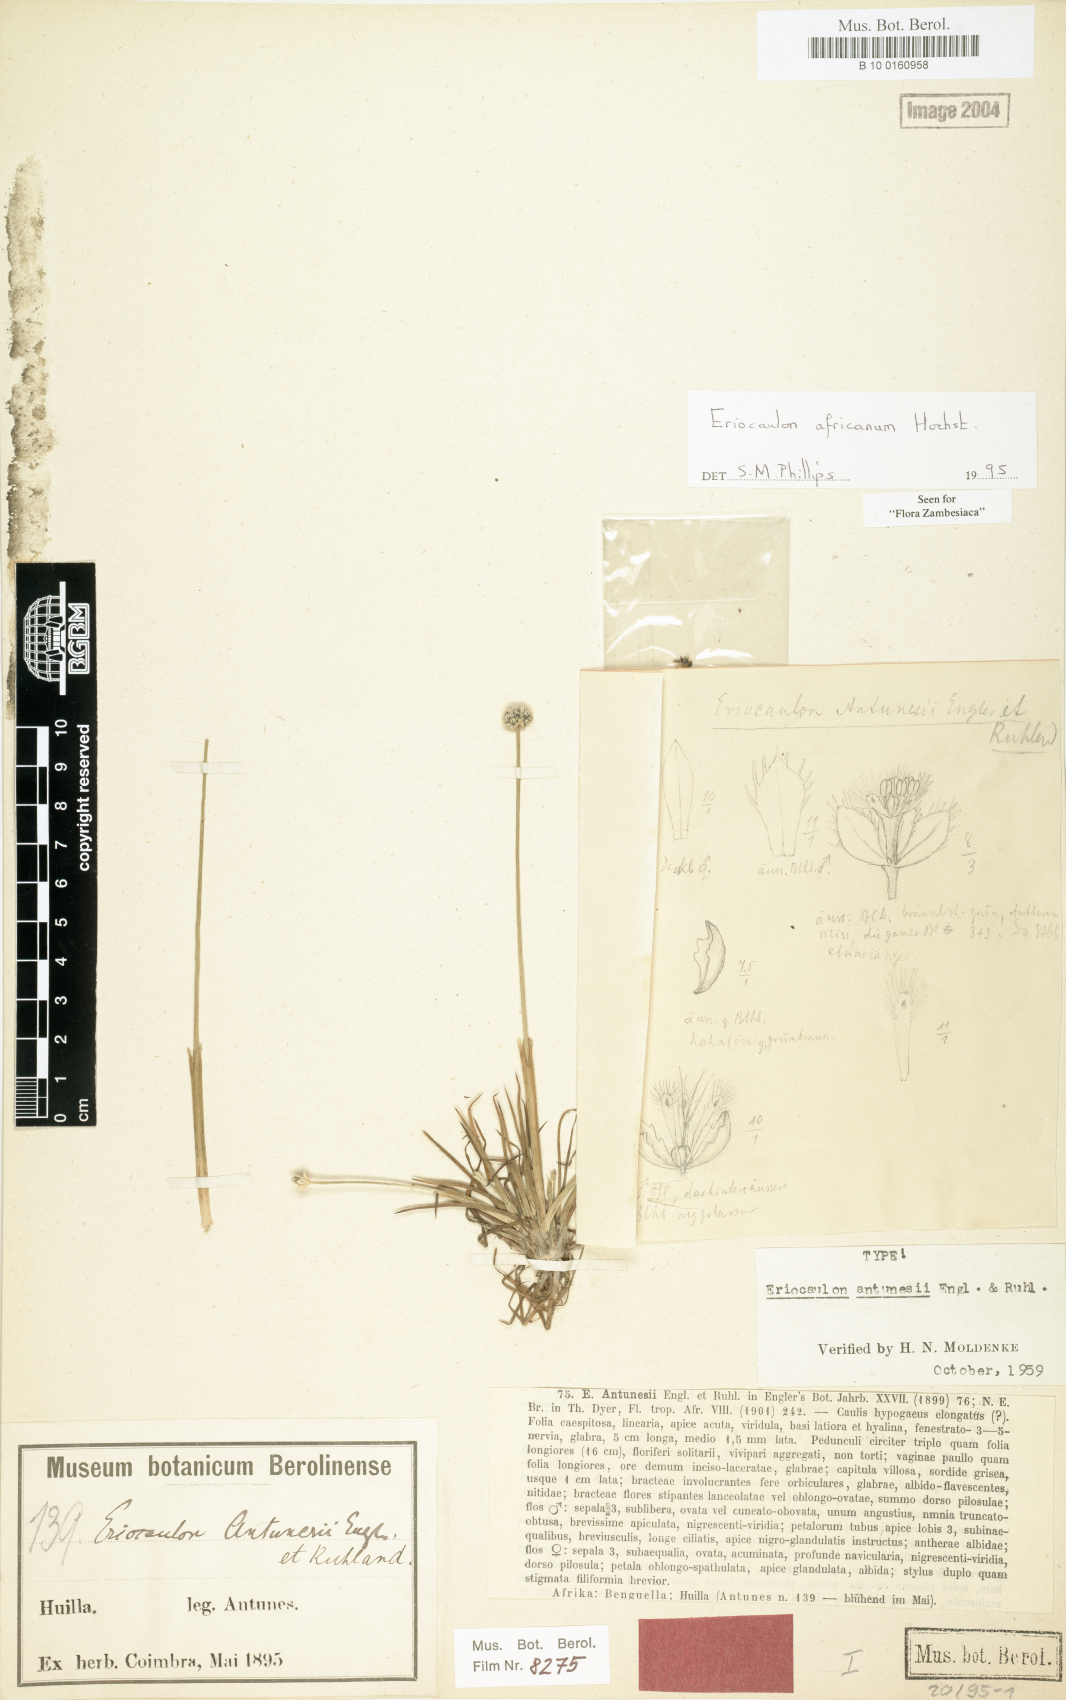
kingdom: Plantae
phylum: Tracheophyta
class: Liliopsida
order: Poales
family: Eriocaulaceae
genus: Eriocaulon
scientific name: Eriocaulon africanum
